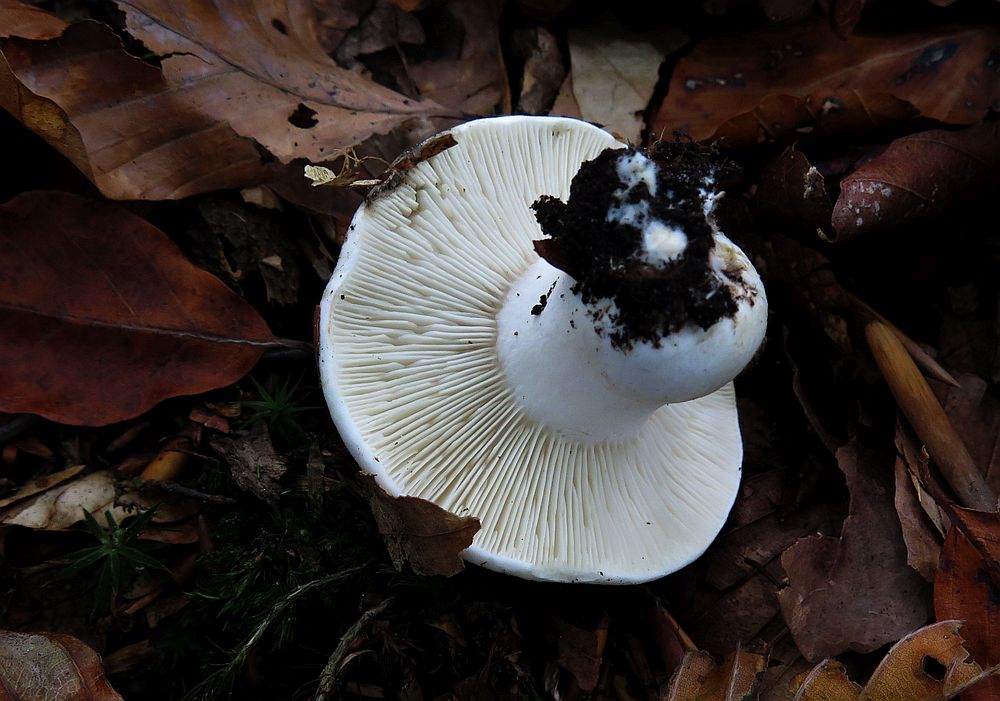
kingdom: Fungi
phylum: Basidiomycota
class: Agaricomycetes
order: Russulales
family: Russulaceae
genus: Russula
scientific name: Russula densifolia
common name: tætbladet skørhat
